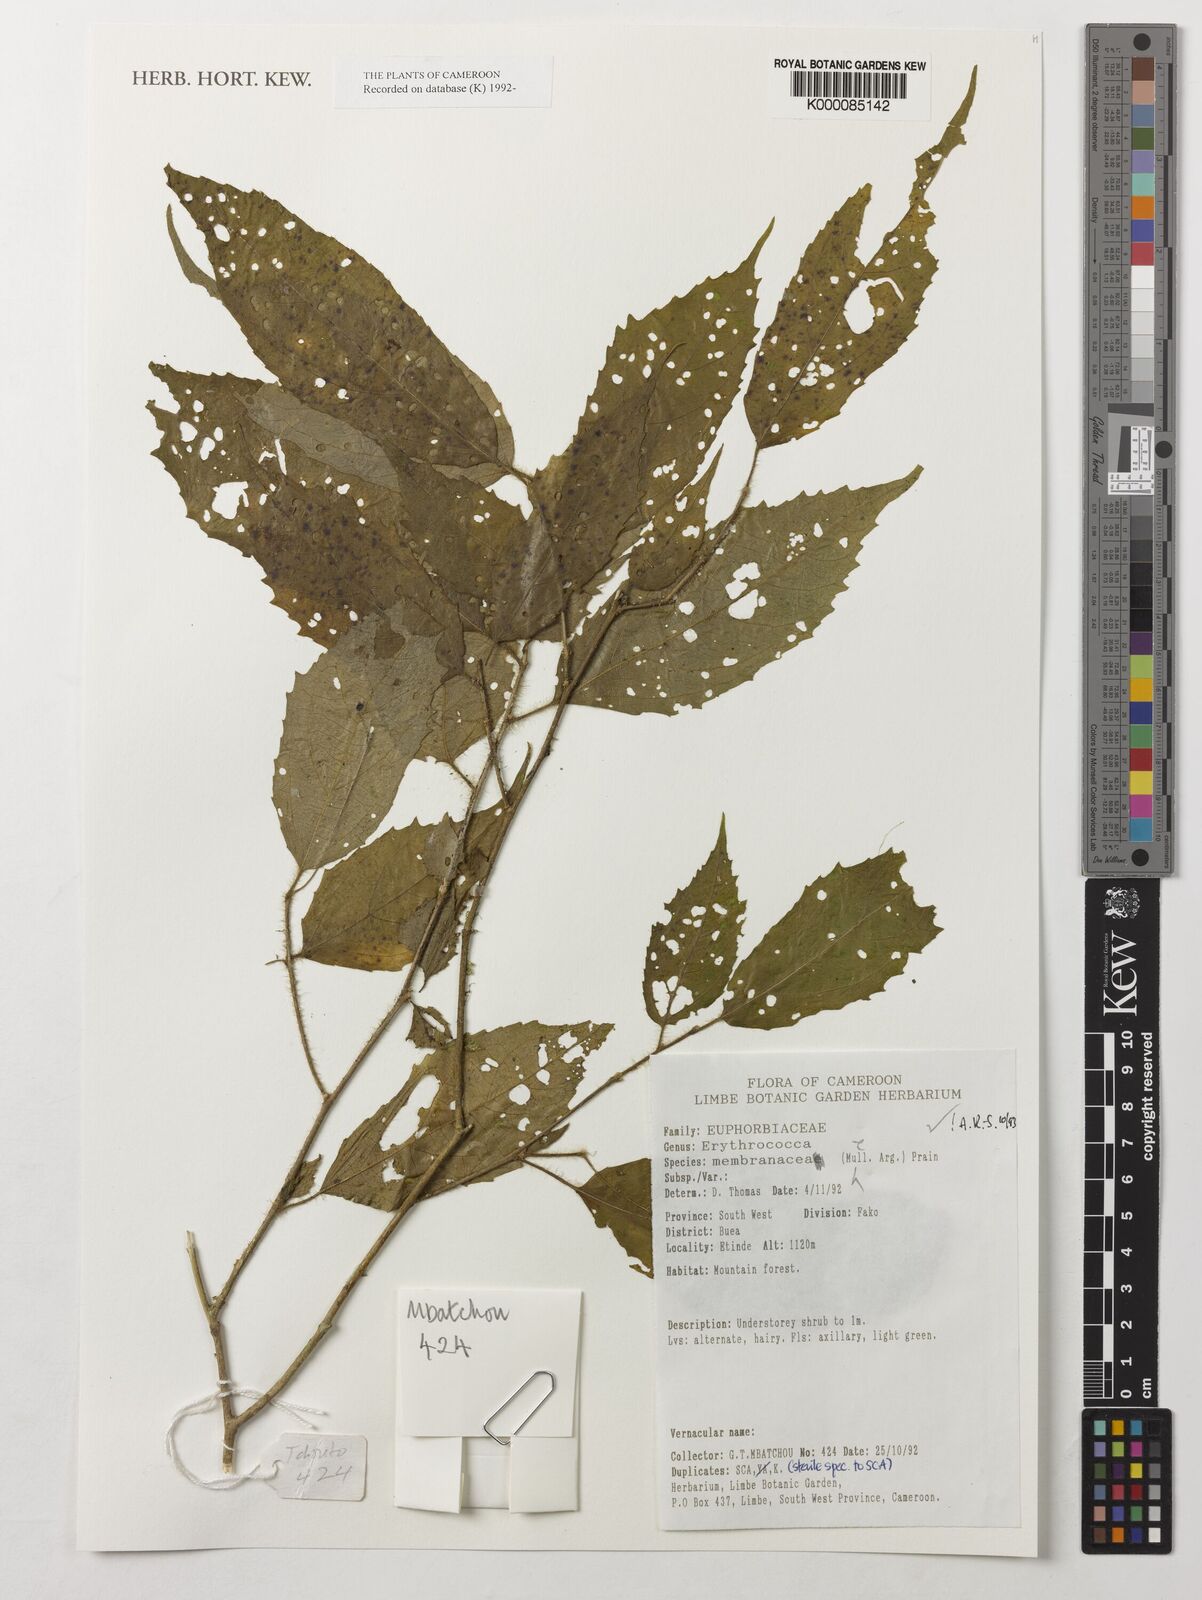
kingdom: Plantae
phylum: Tracheophyta
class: Magnoliopsida
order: Malpighiales
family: Euphorbiaceae
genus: Erythrococca
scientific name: Erythrococca
